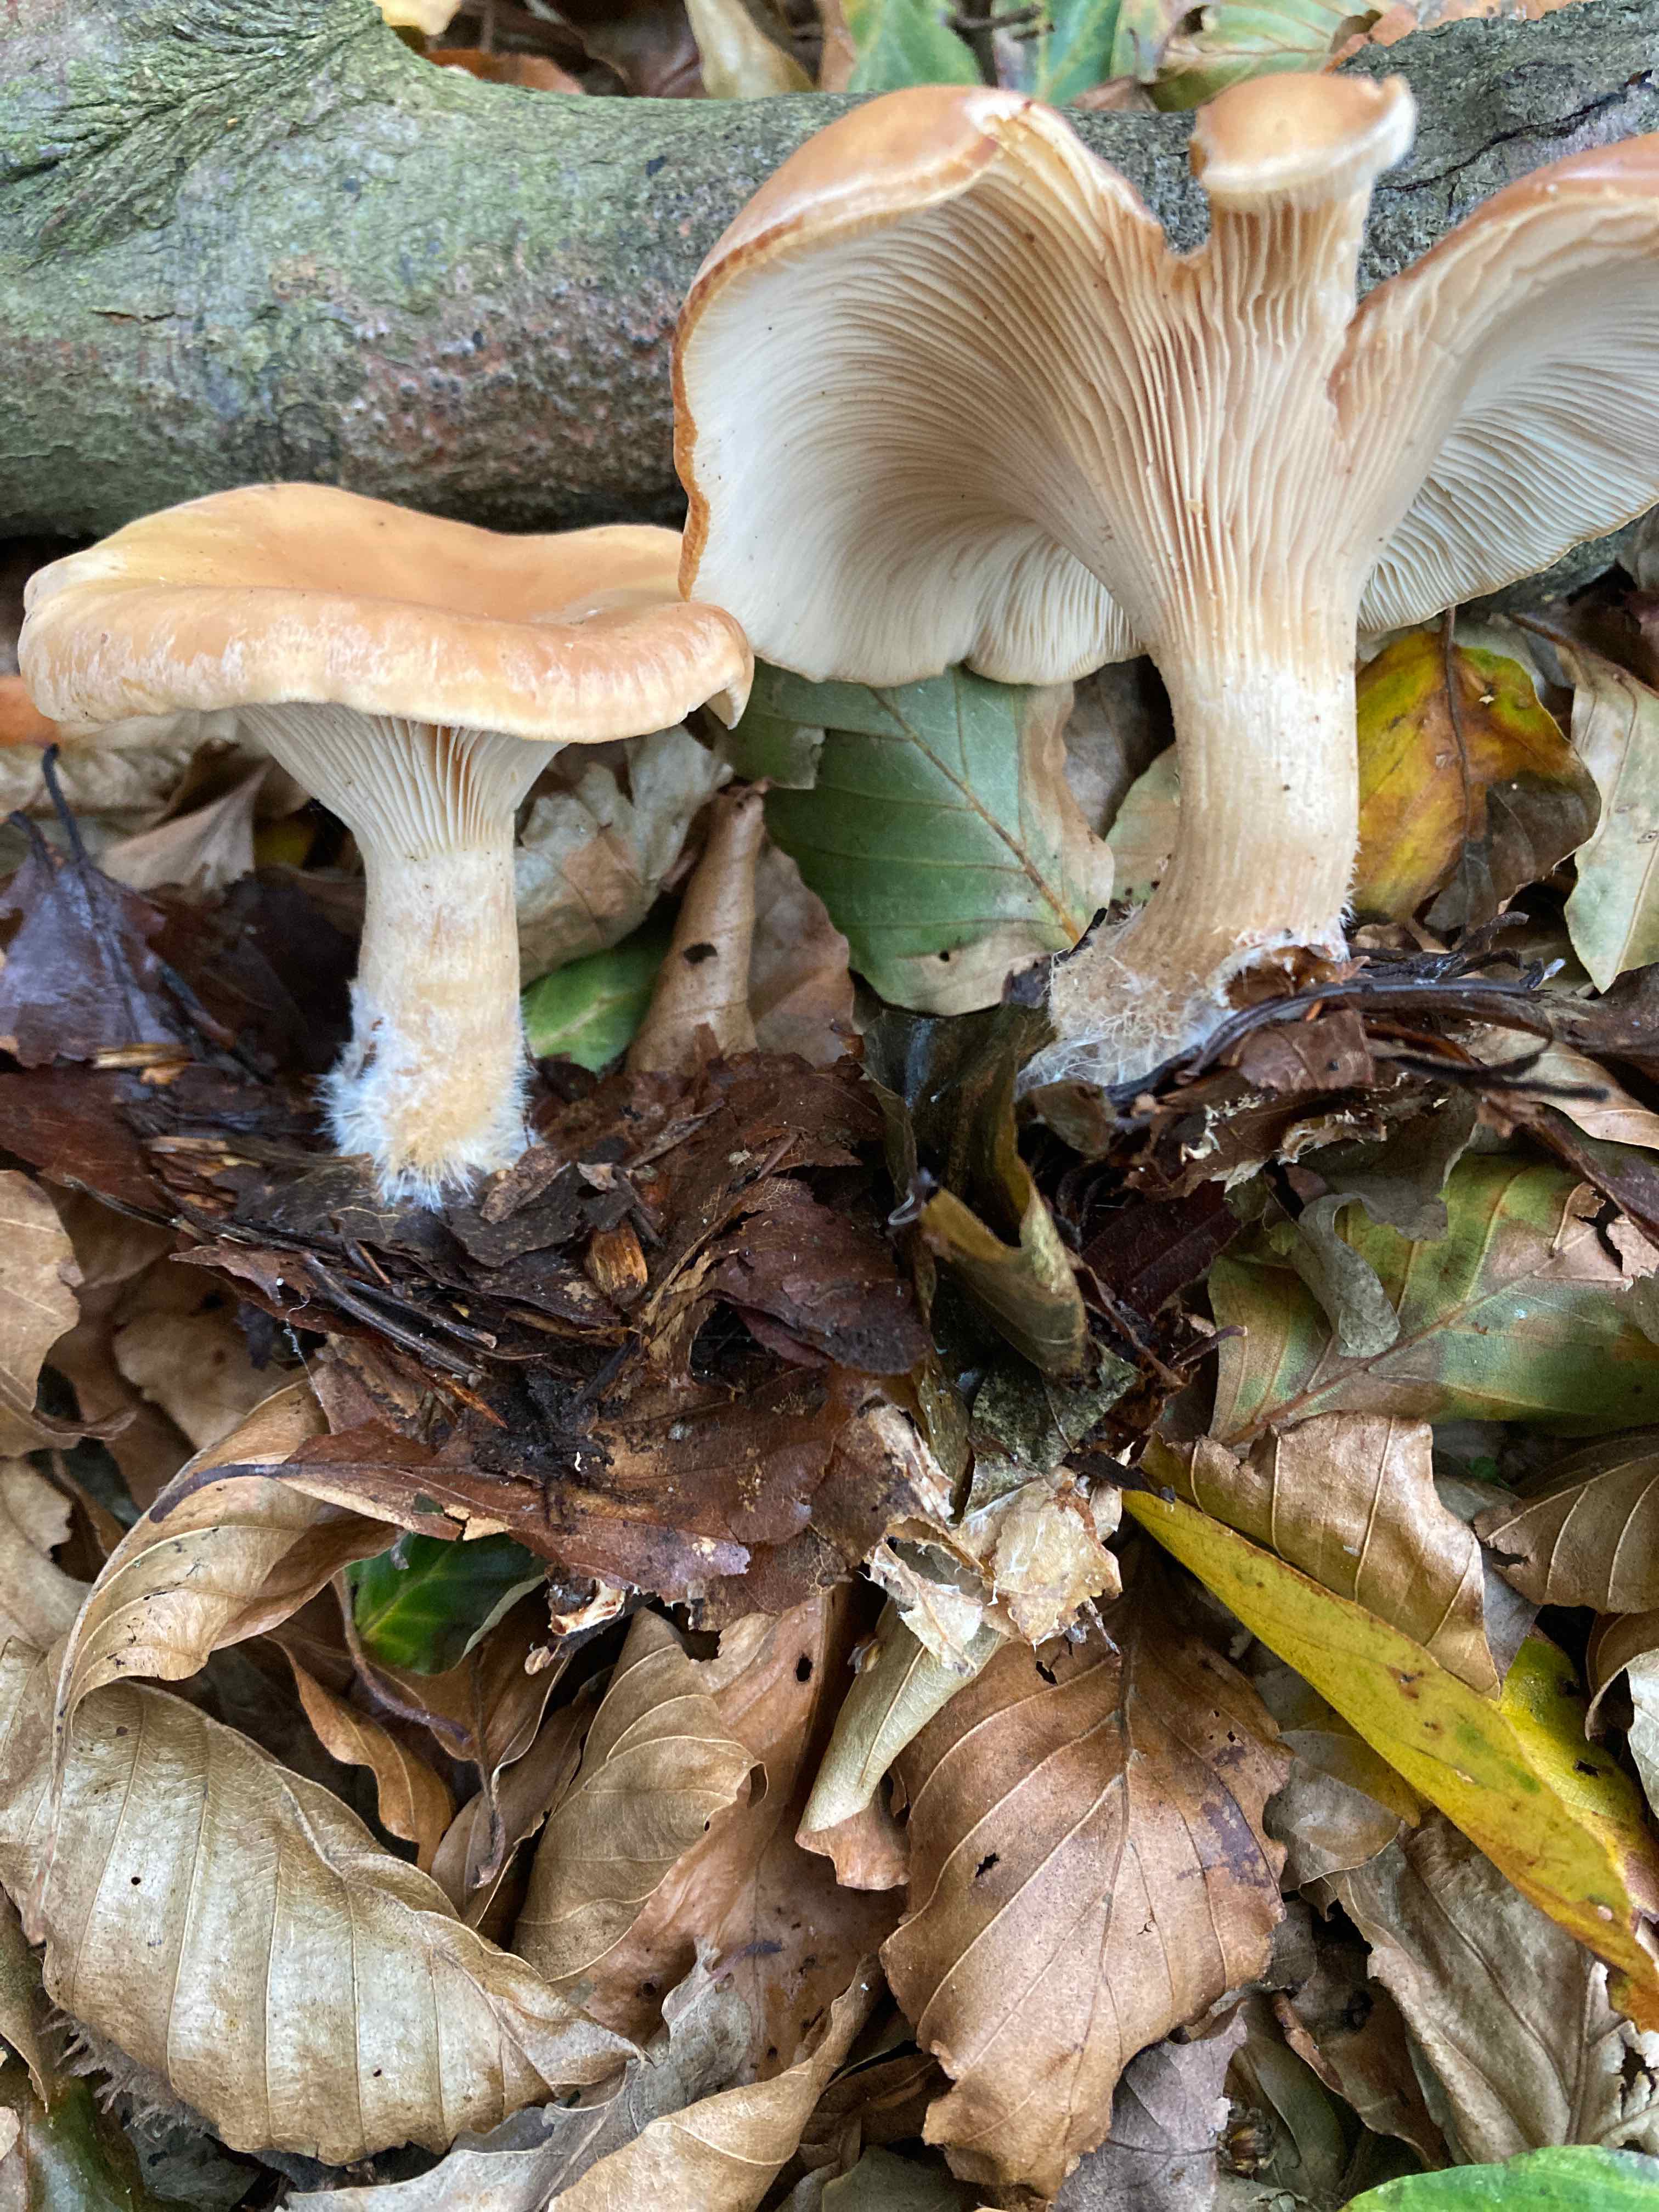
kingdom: Fungi
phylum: Basidiomycota
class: Agaricomycetes
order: Agaricales
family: Tricholomataceae
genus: Paralepista
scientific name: Paralepista flaccida
